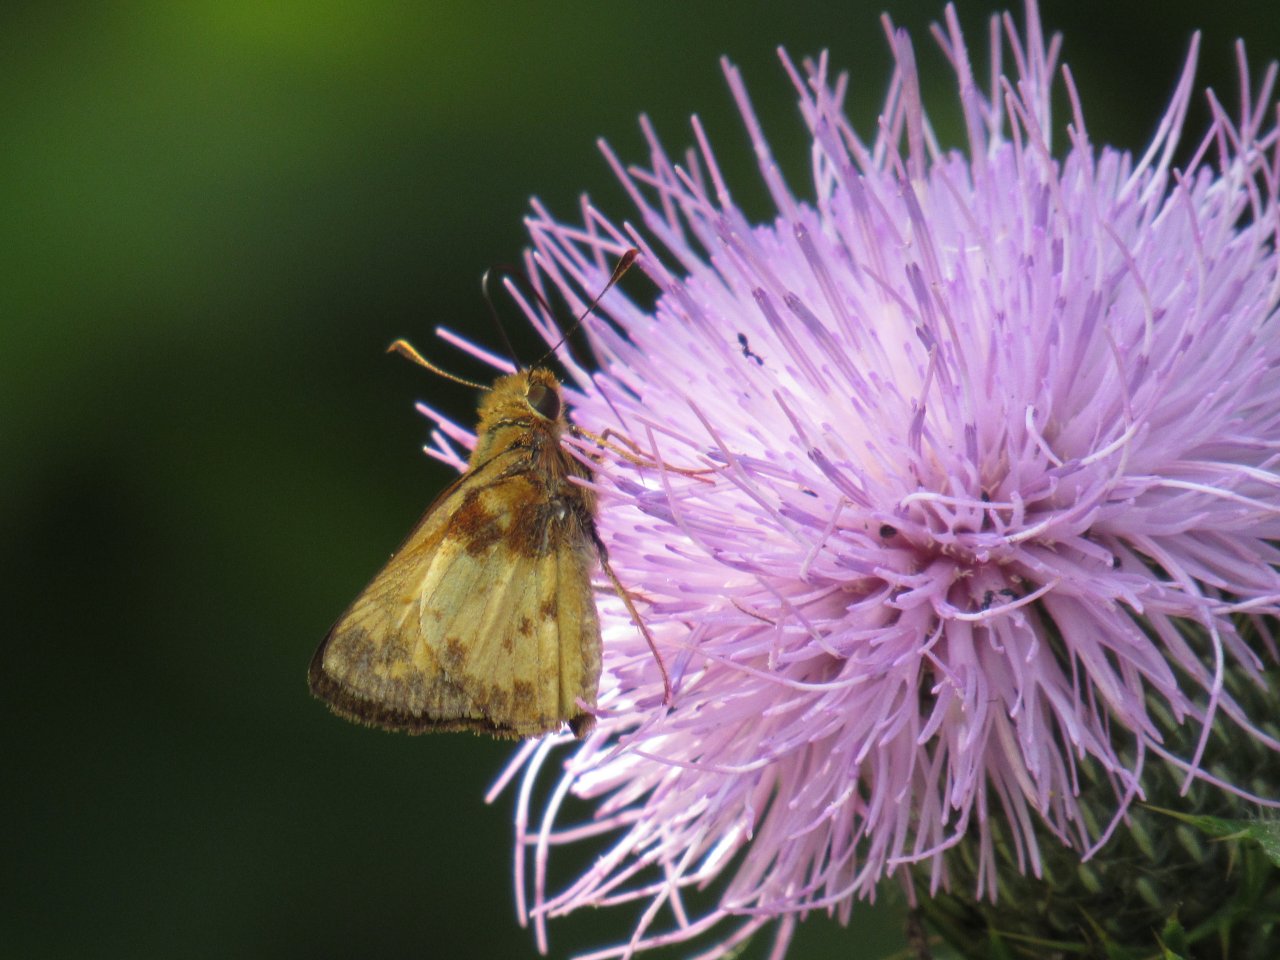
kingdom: Animalia
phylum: Arthropoda
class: Insecta
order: Lepidoptera
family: Hesperiidae
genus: Lon
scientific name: Lon zabulon
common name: Zabulon Skipper
